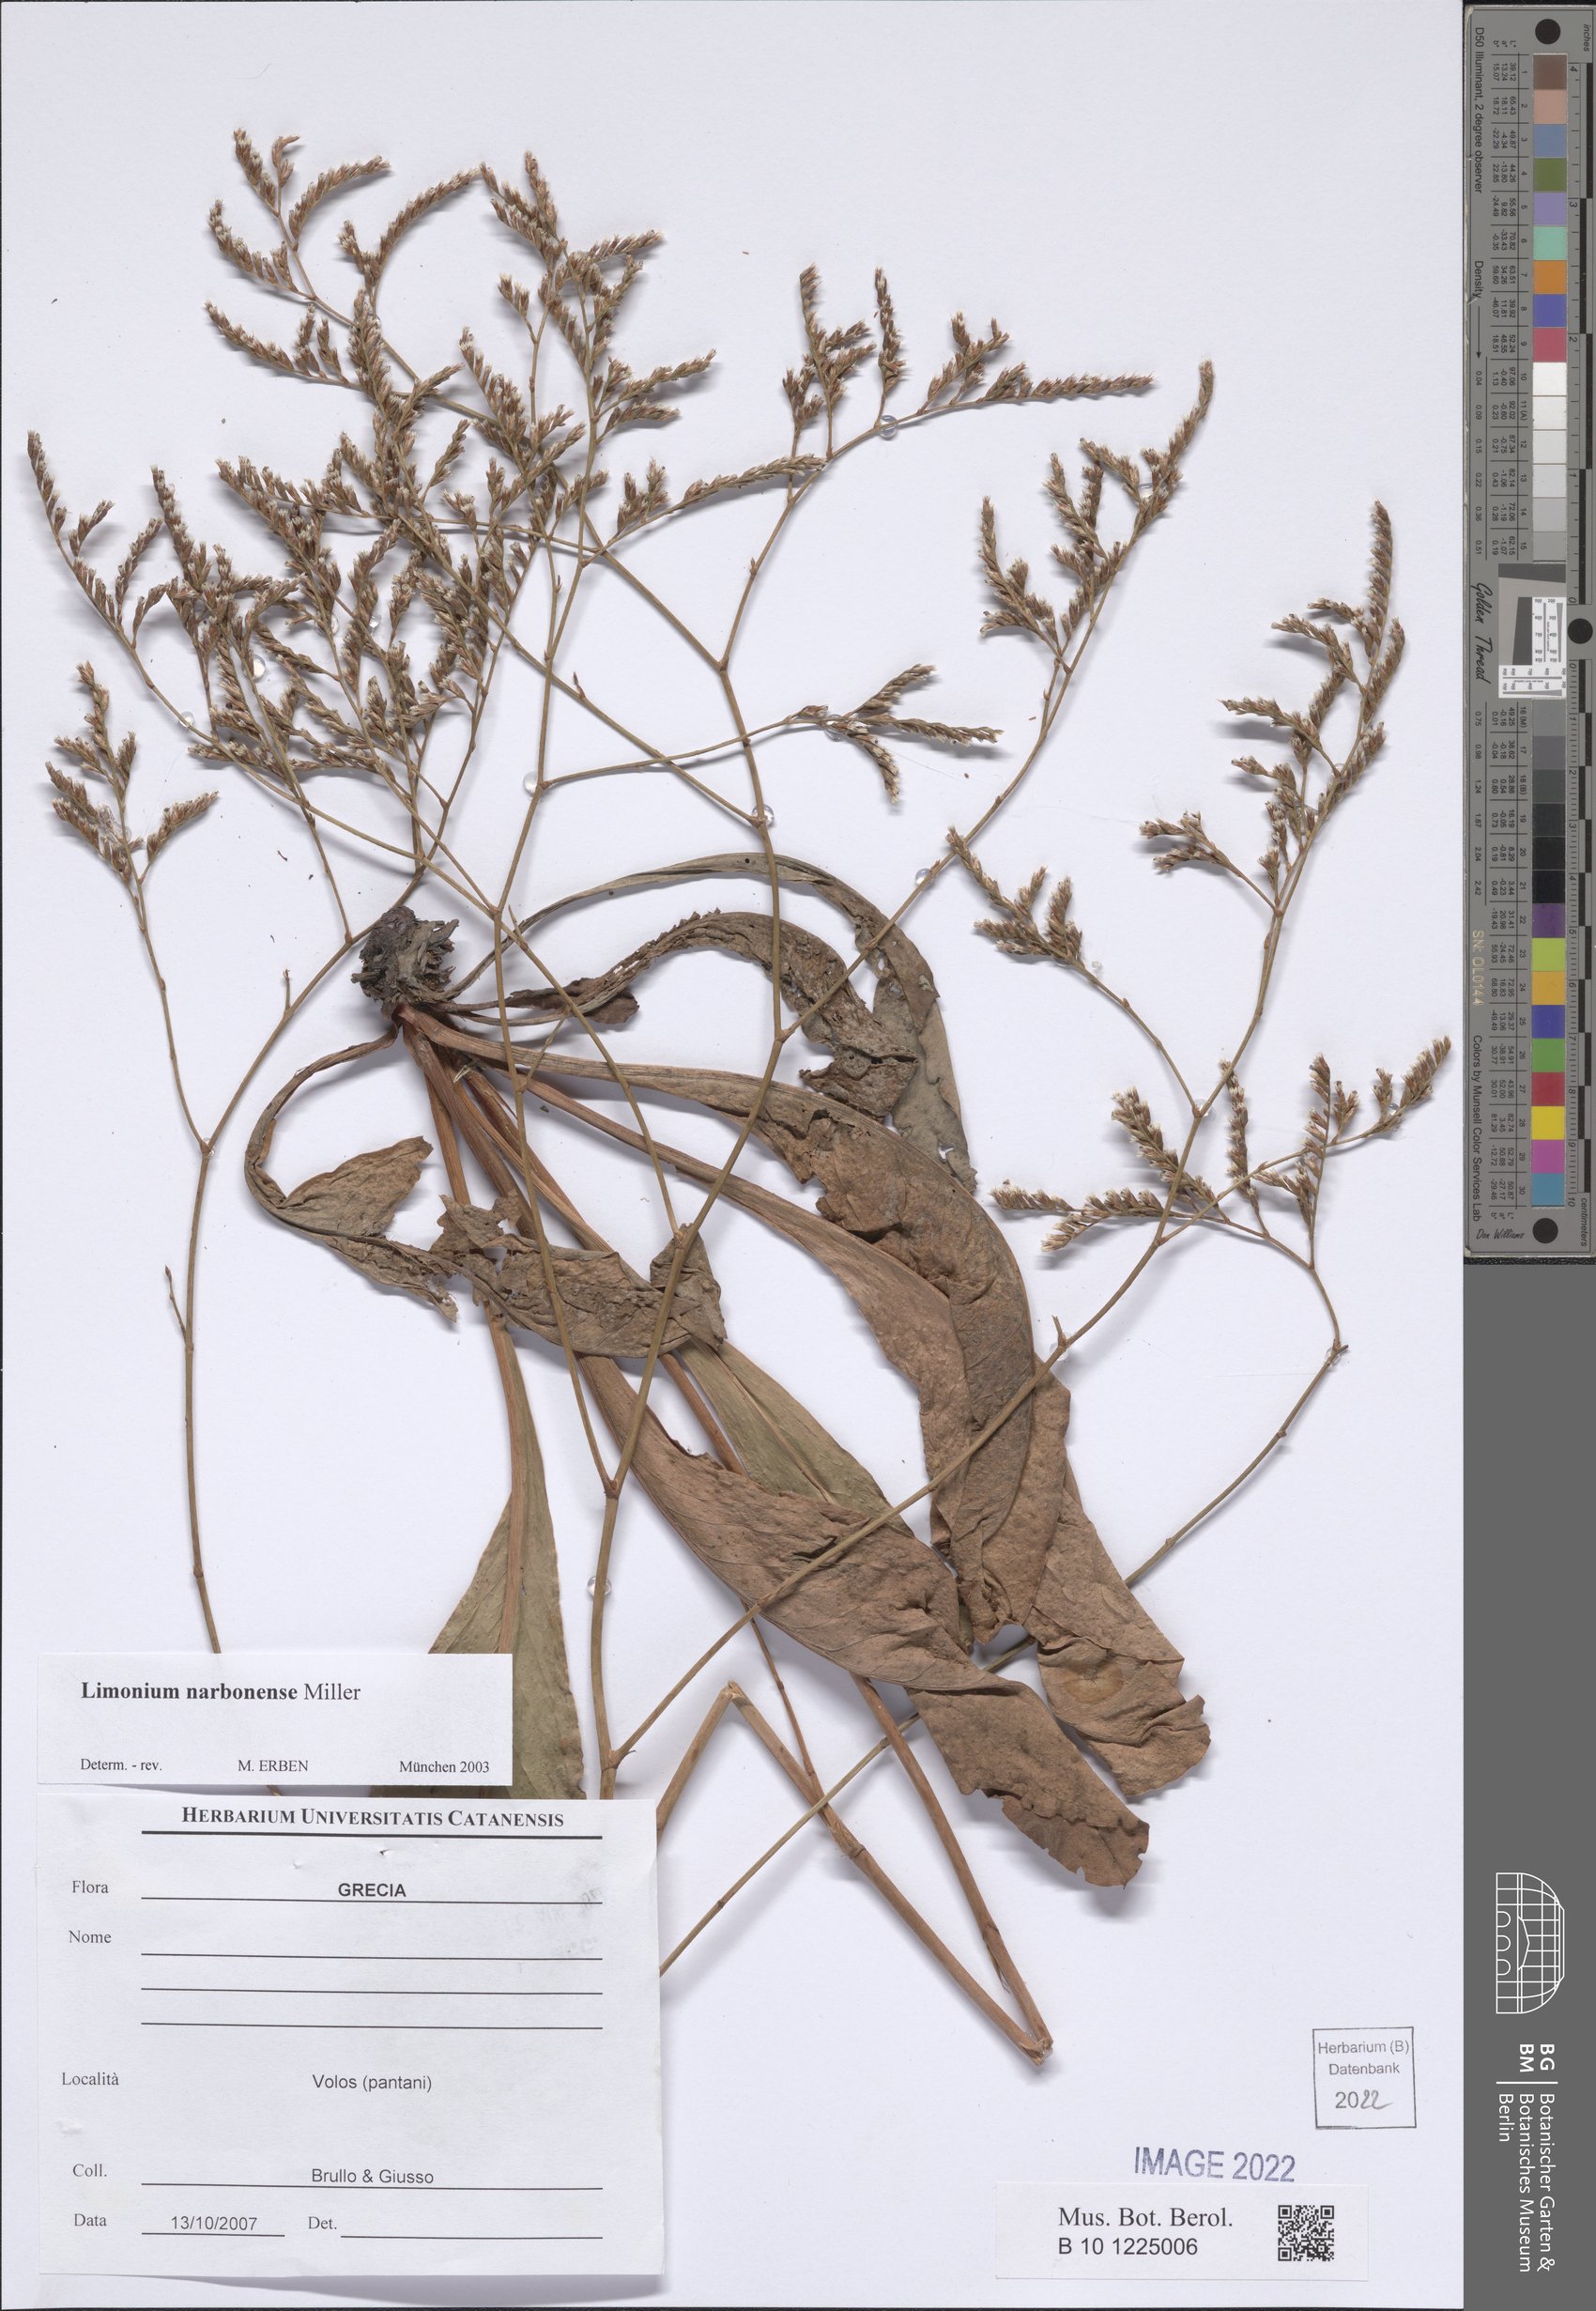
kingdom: Plantae
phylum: Tracheophyta
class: Magnoliopsida
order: Caryophyllales
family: Plumbaginaceae
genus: Limonium
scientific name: Limonium narbonense
